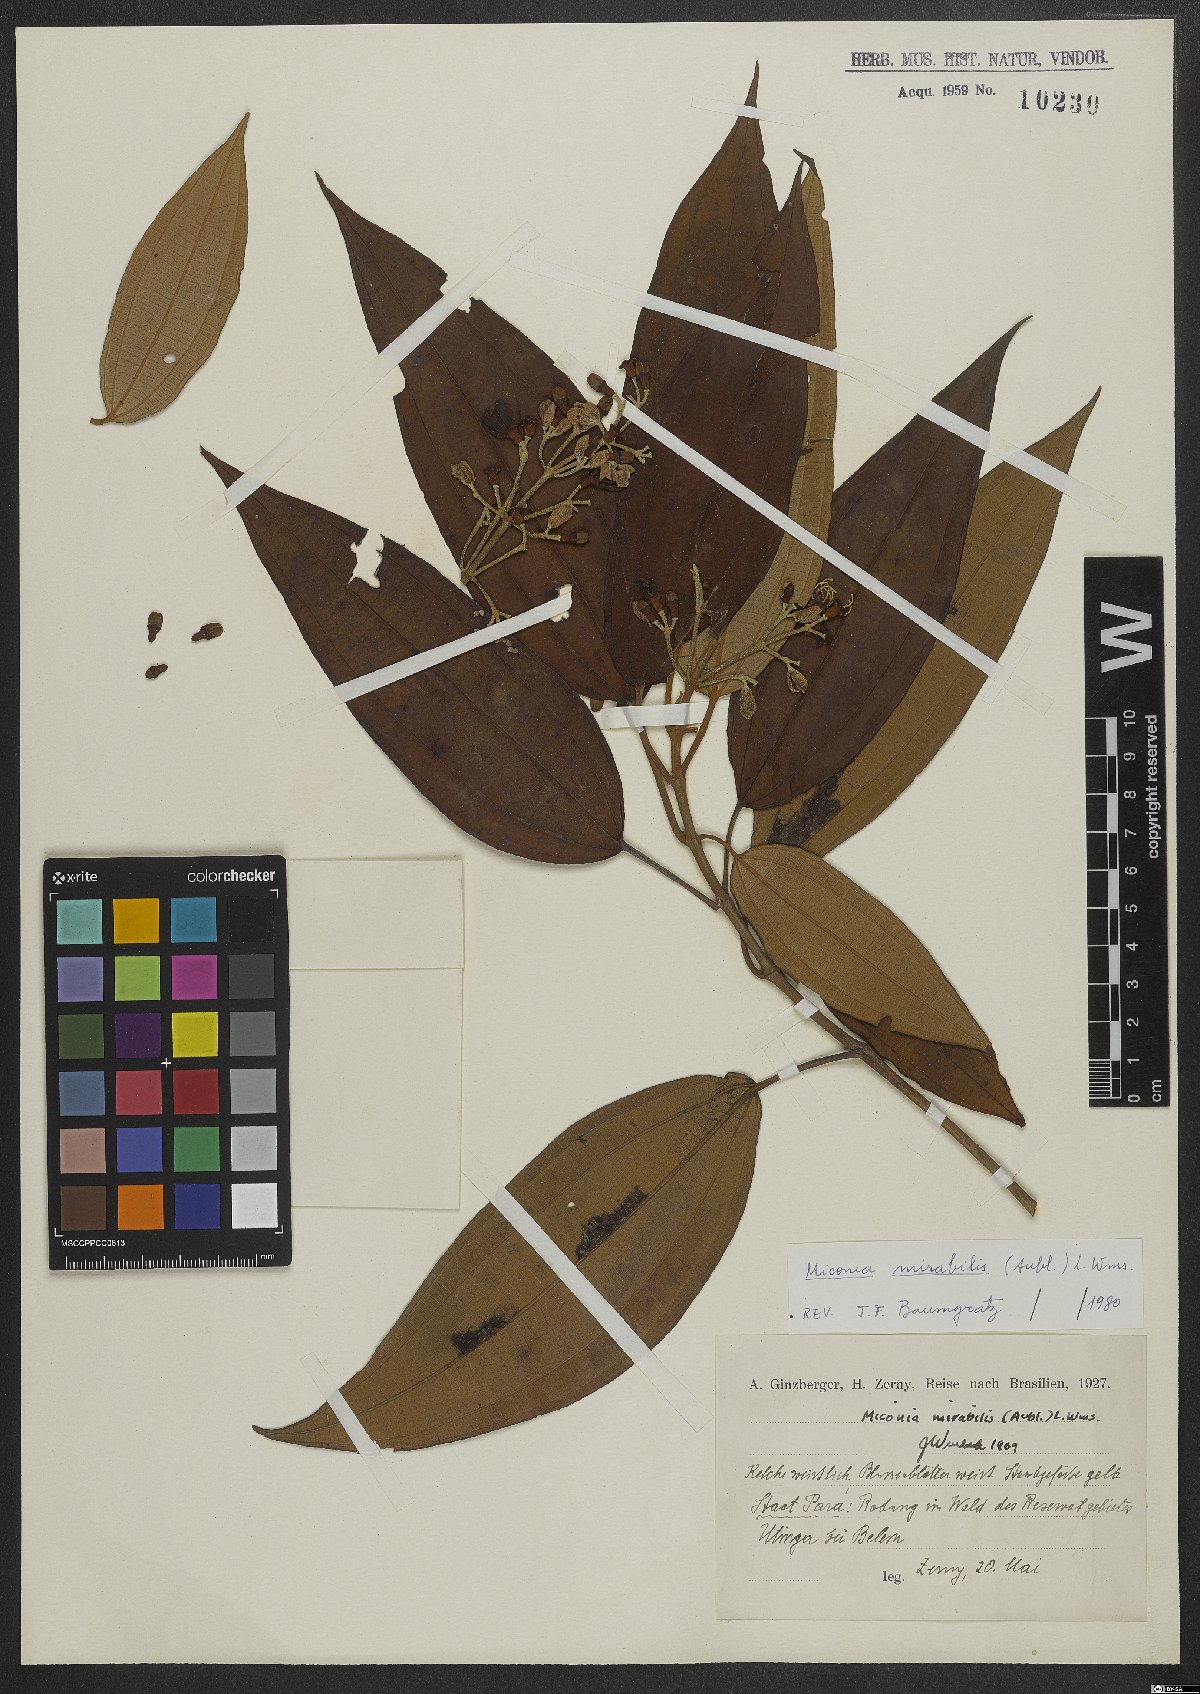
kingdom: Plantae
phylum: Tracheophyta
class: Magnoliopsida
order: Myrtales
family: Melastomataceae
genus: Miconia
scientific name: Miconia mirabilis
